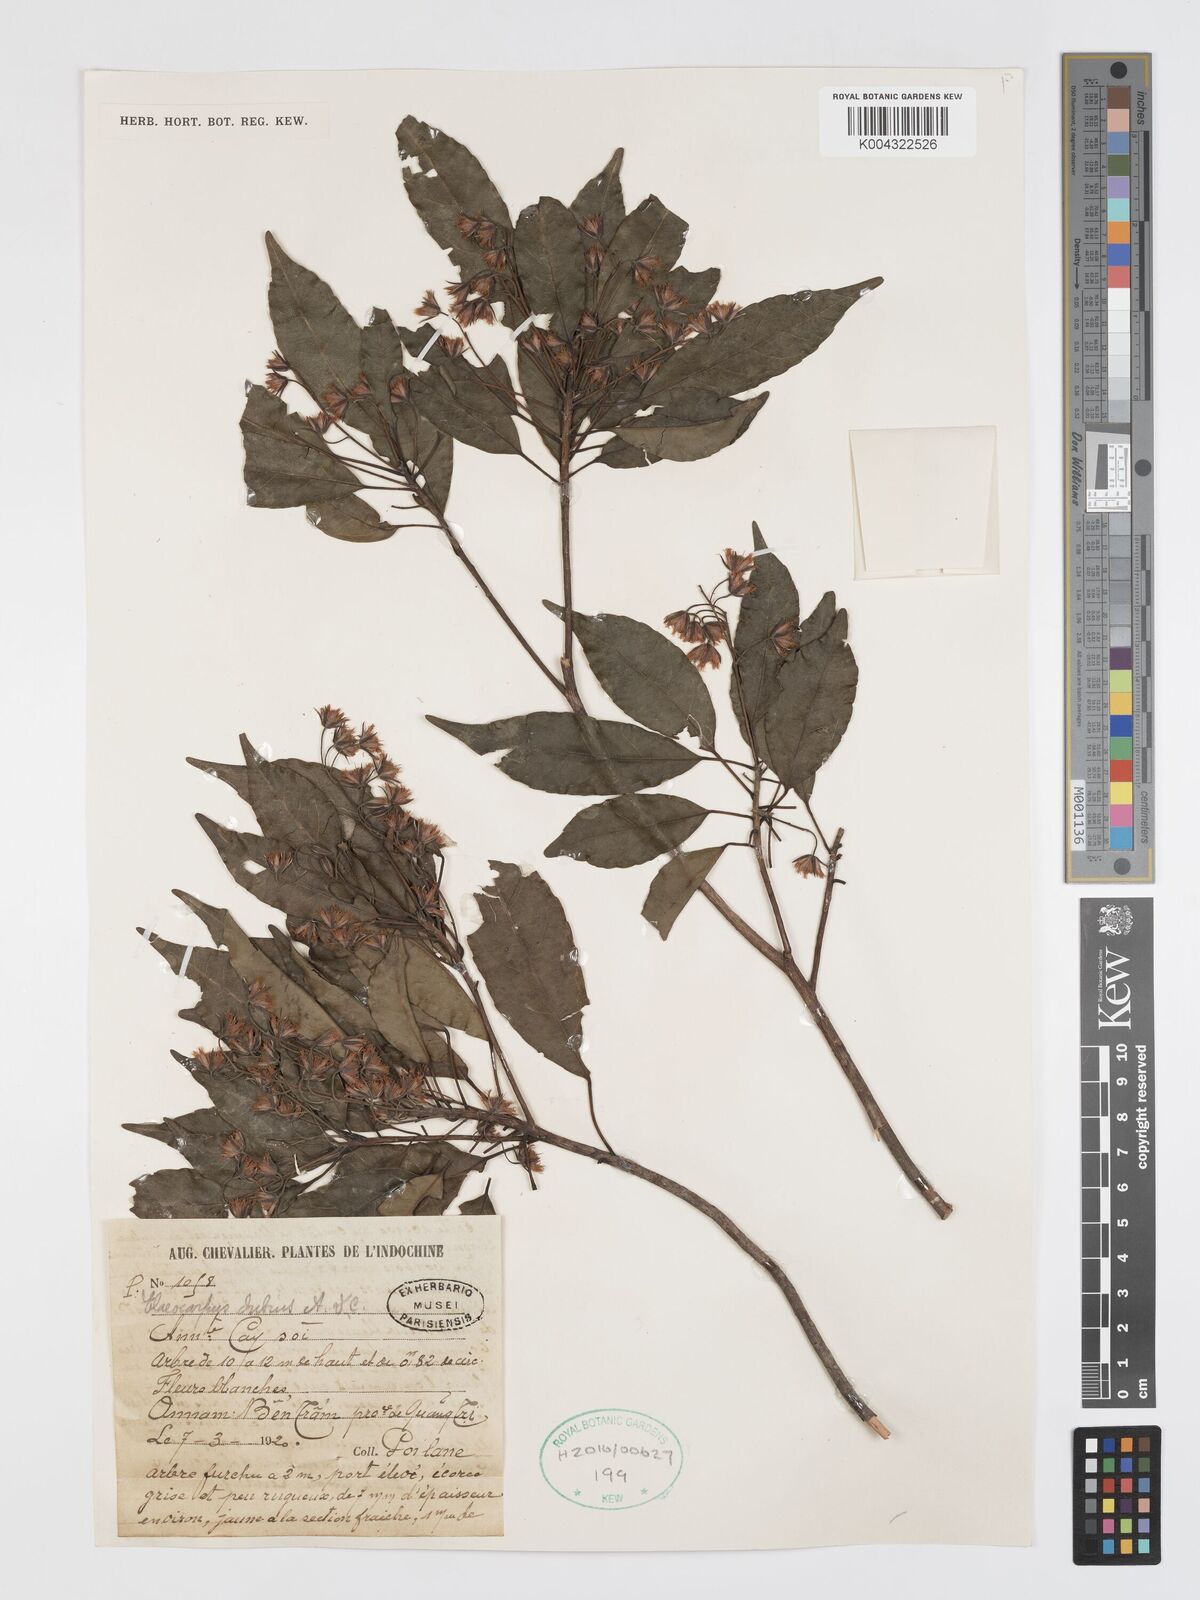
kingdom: Plantae
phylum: Tracheophyta
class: Magnoliopsida
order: Oxalidales
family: Elaeocarpaceae
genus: Elaeocarpus
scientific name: Elaeocarpus dubius
